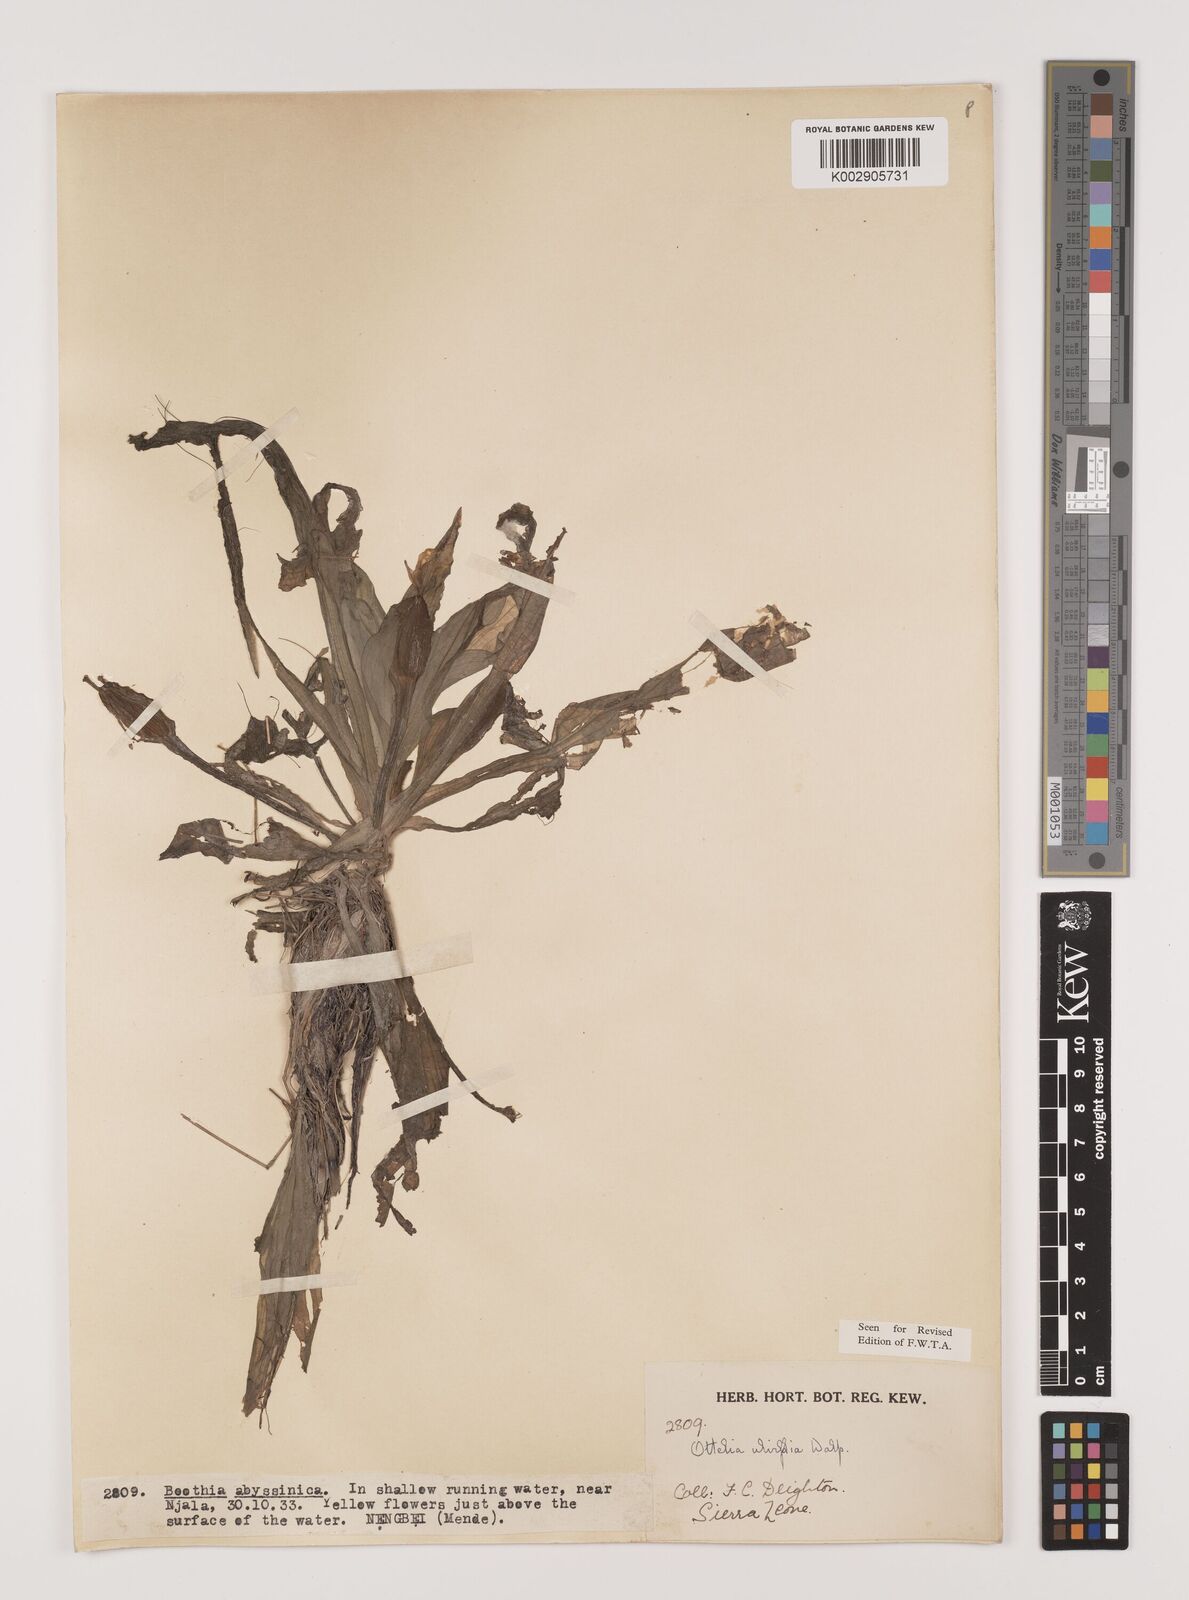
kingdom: Plantae
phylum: Tracheophyta
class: Liliopsida
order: Alismatales
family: Hydrocharitaceae
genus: Ottelia
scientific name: Ottelia ulvifolia
